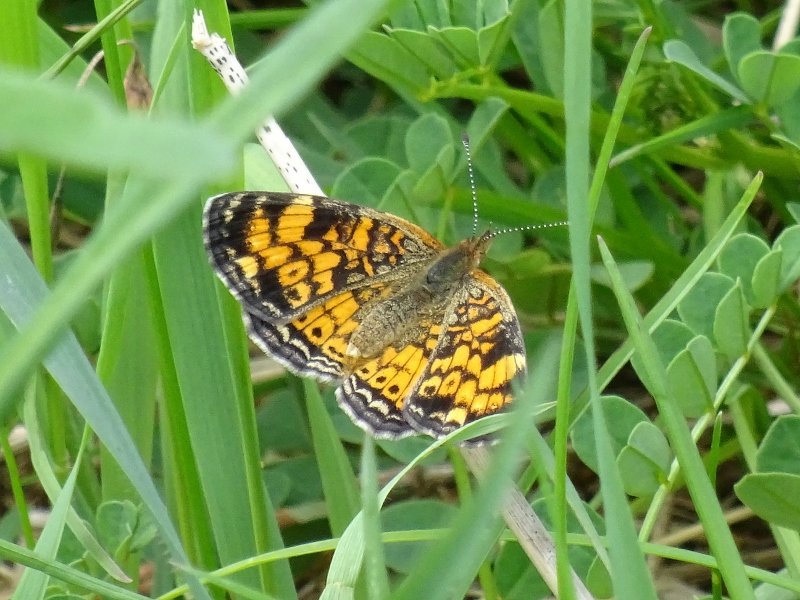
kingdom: Animalia
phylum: Arthropoda
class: Insecta
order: Lepidoptera
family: Nymphalidae
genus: Phyciodes
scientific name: Phyciodes tharos
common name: Pearl Crescent
